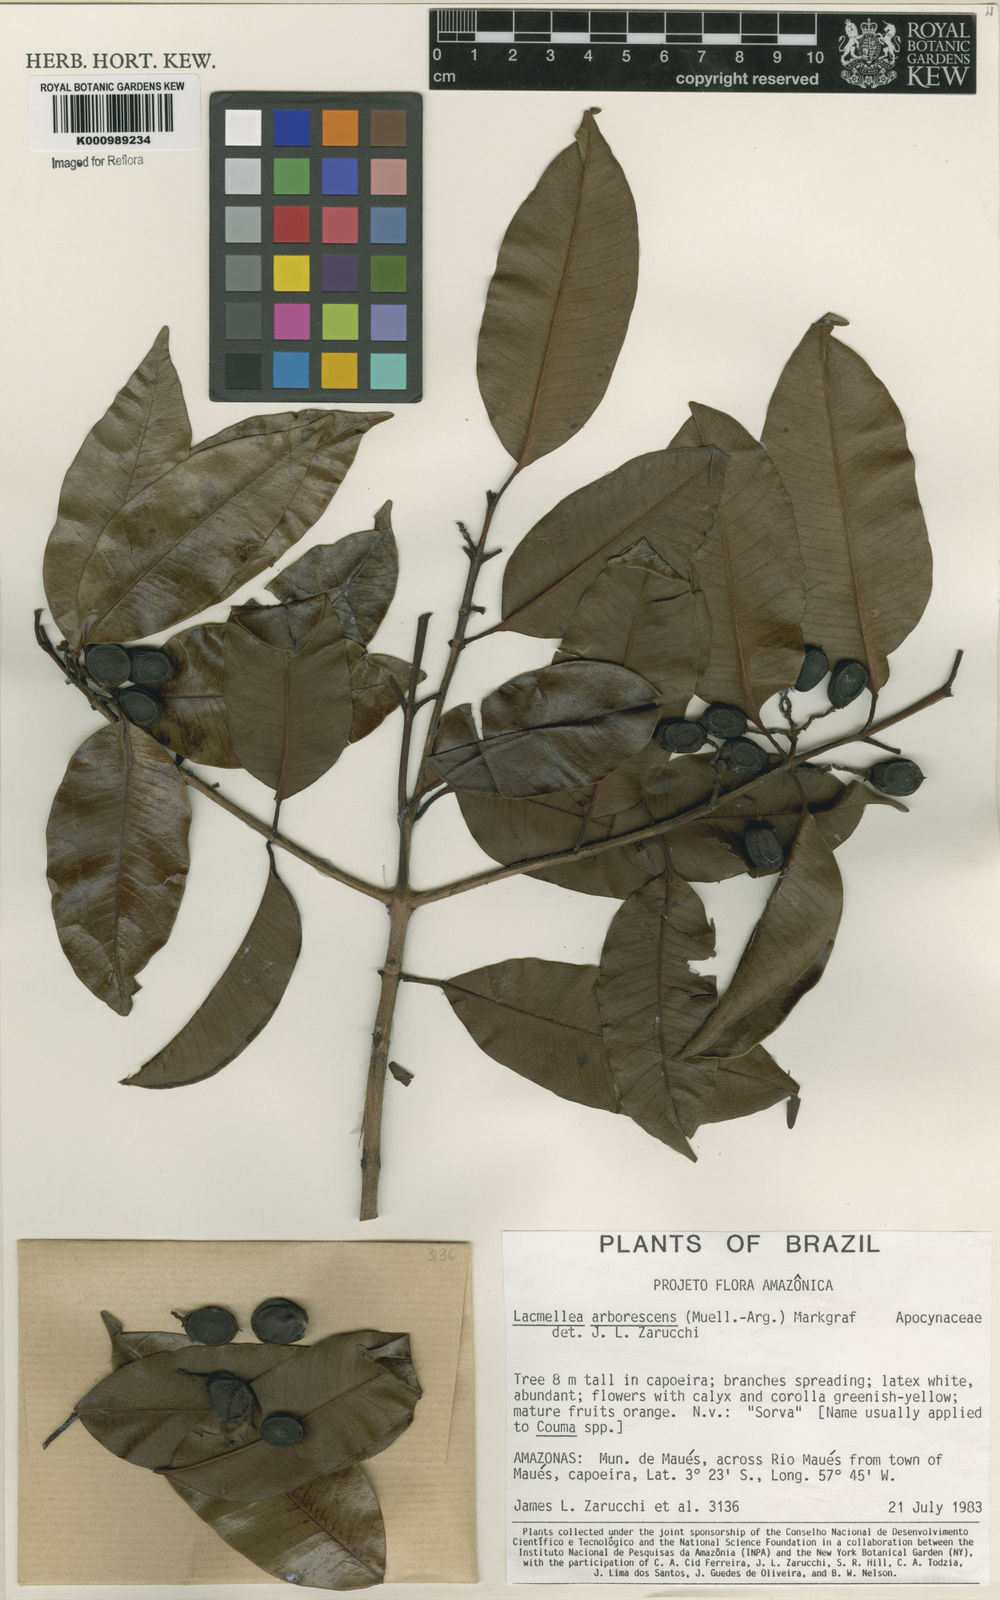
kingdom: Plantae
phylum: Tracheophyta
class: Magnoliopsida
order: Gentianales
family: Apocynaceae
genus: Lacmellea
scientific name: Lacmellea
